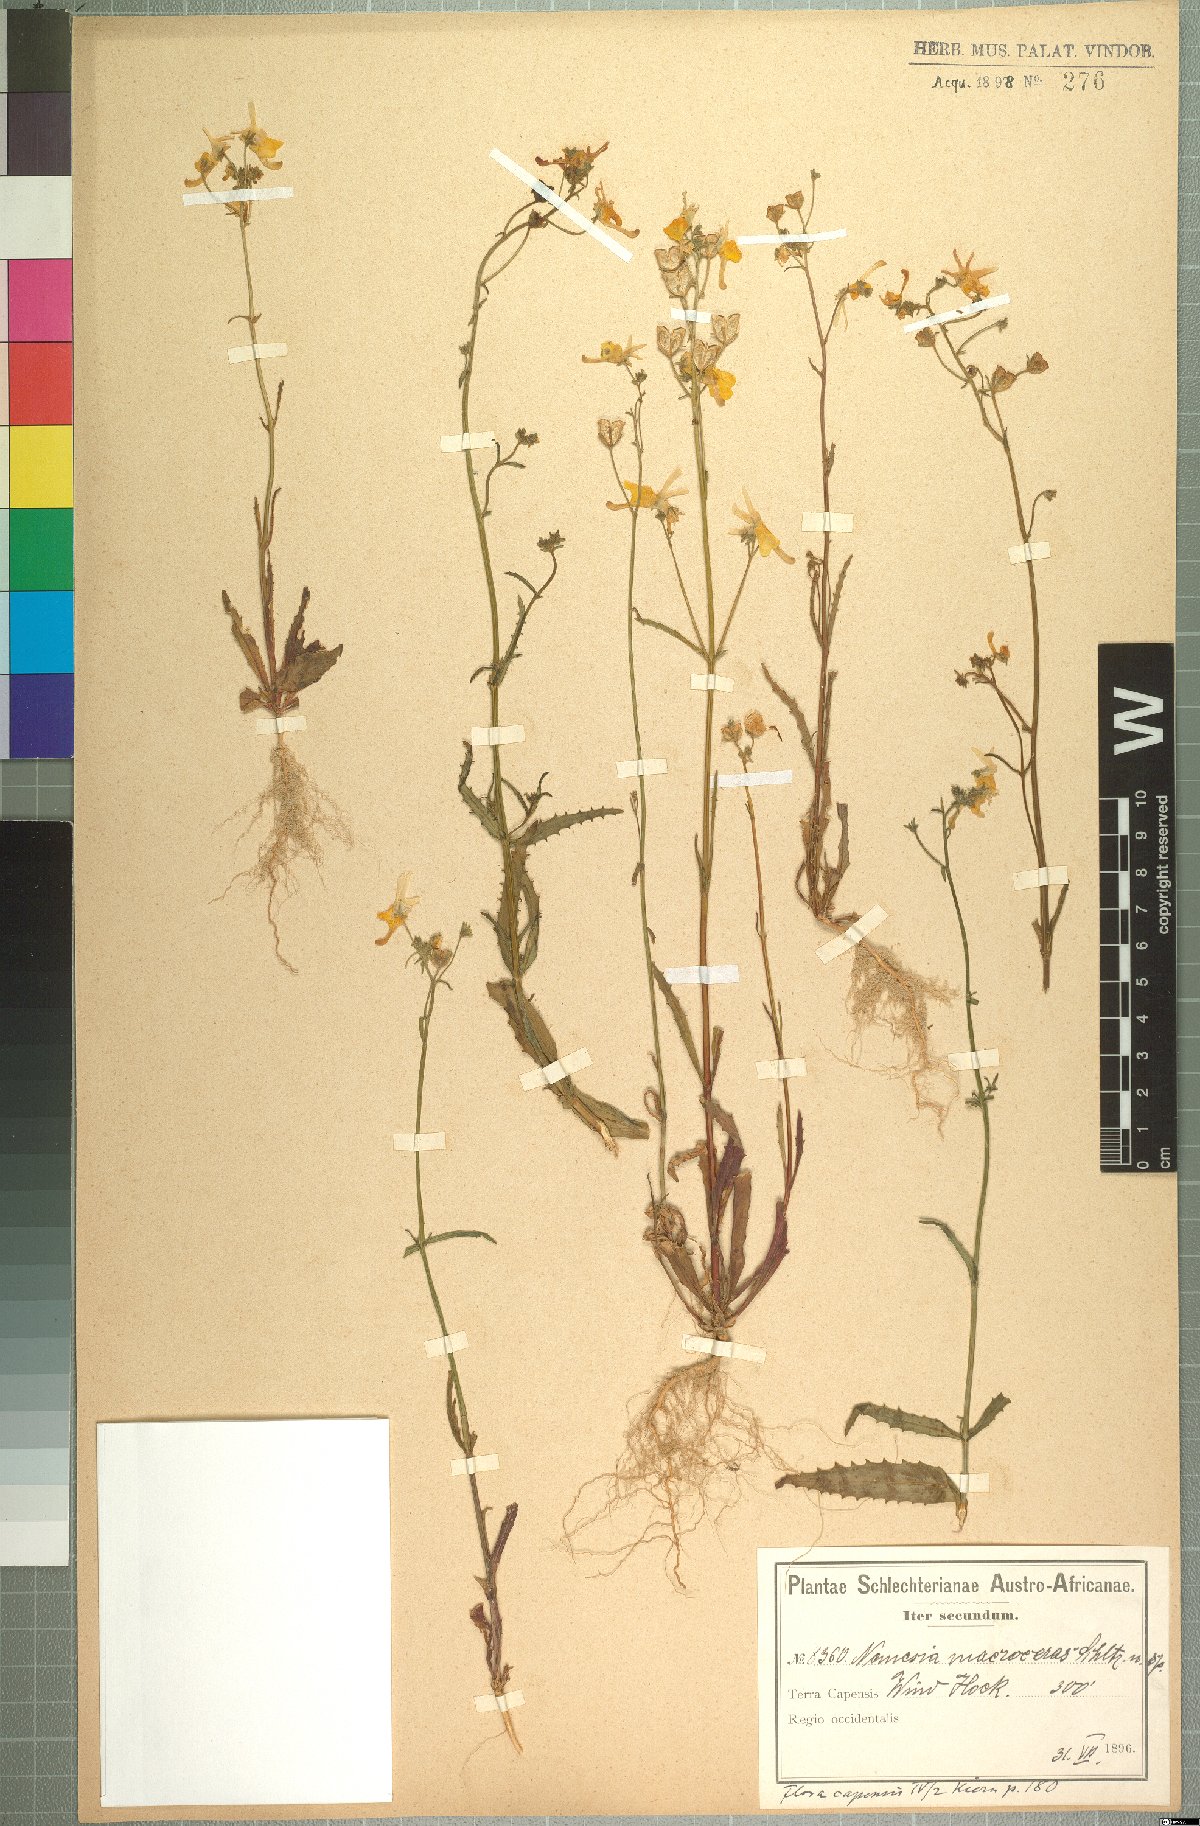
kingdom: Plantae
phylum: Tracheophyta
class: Magnoliopsida
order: Lamiales
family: Scrophulariaceae
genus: Nemesia
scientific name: Nemesia macroceras
